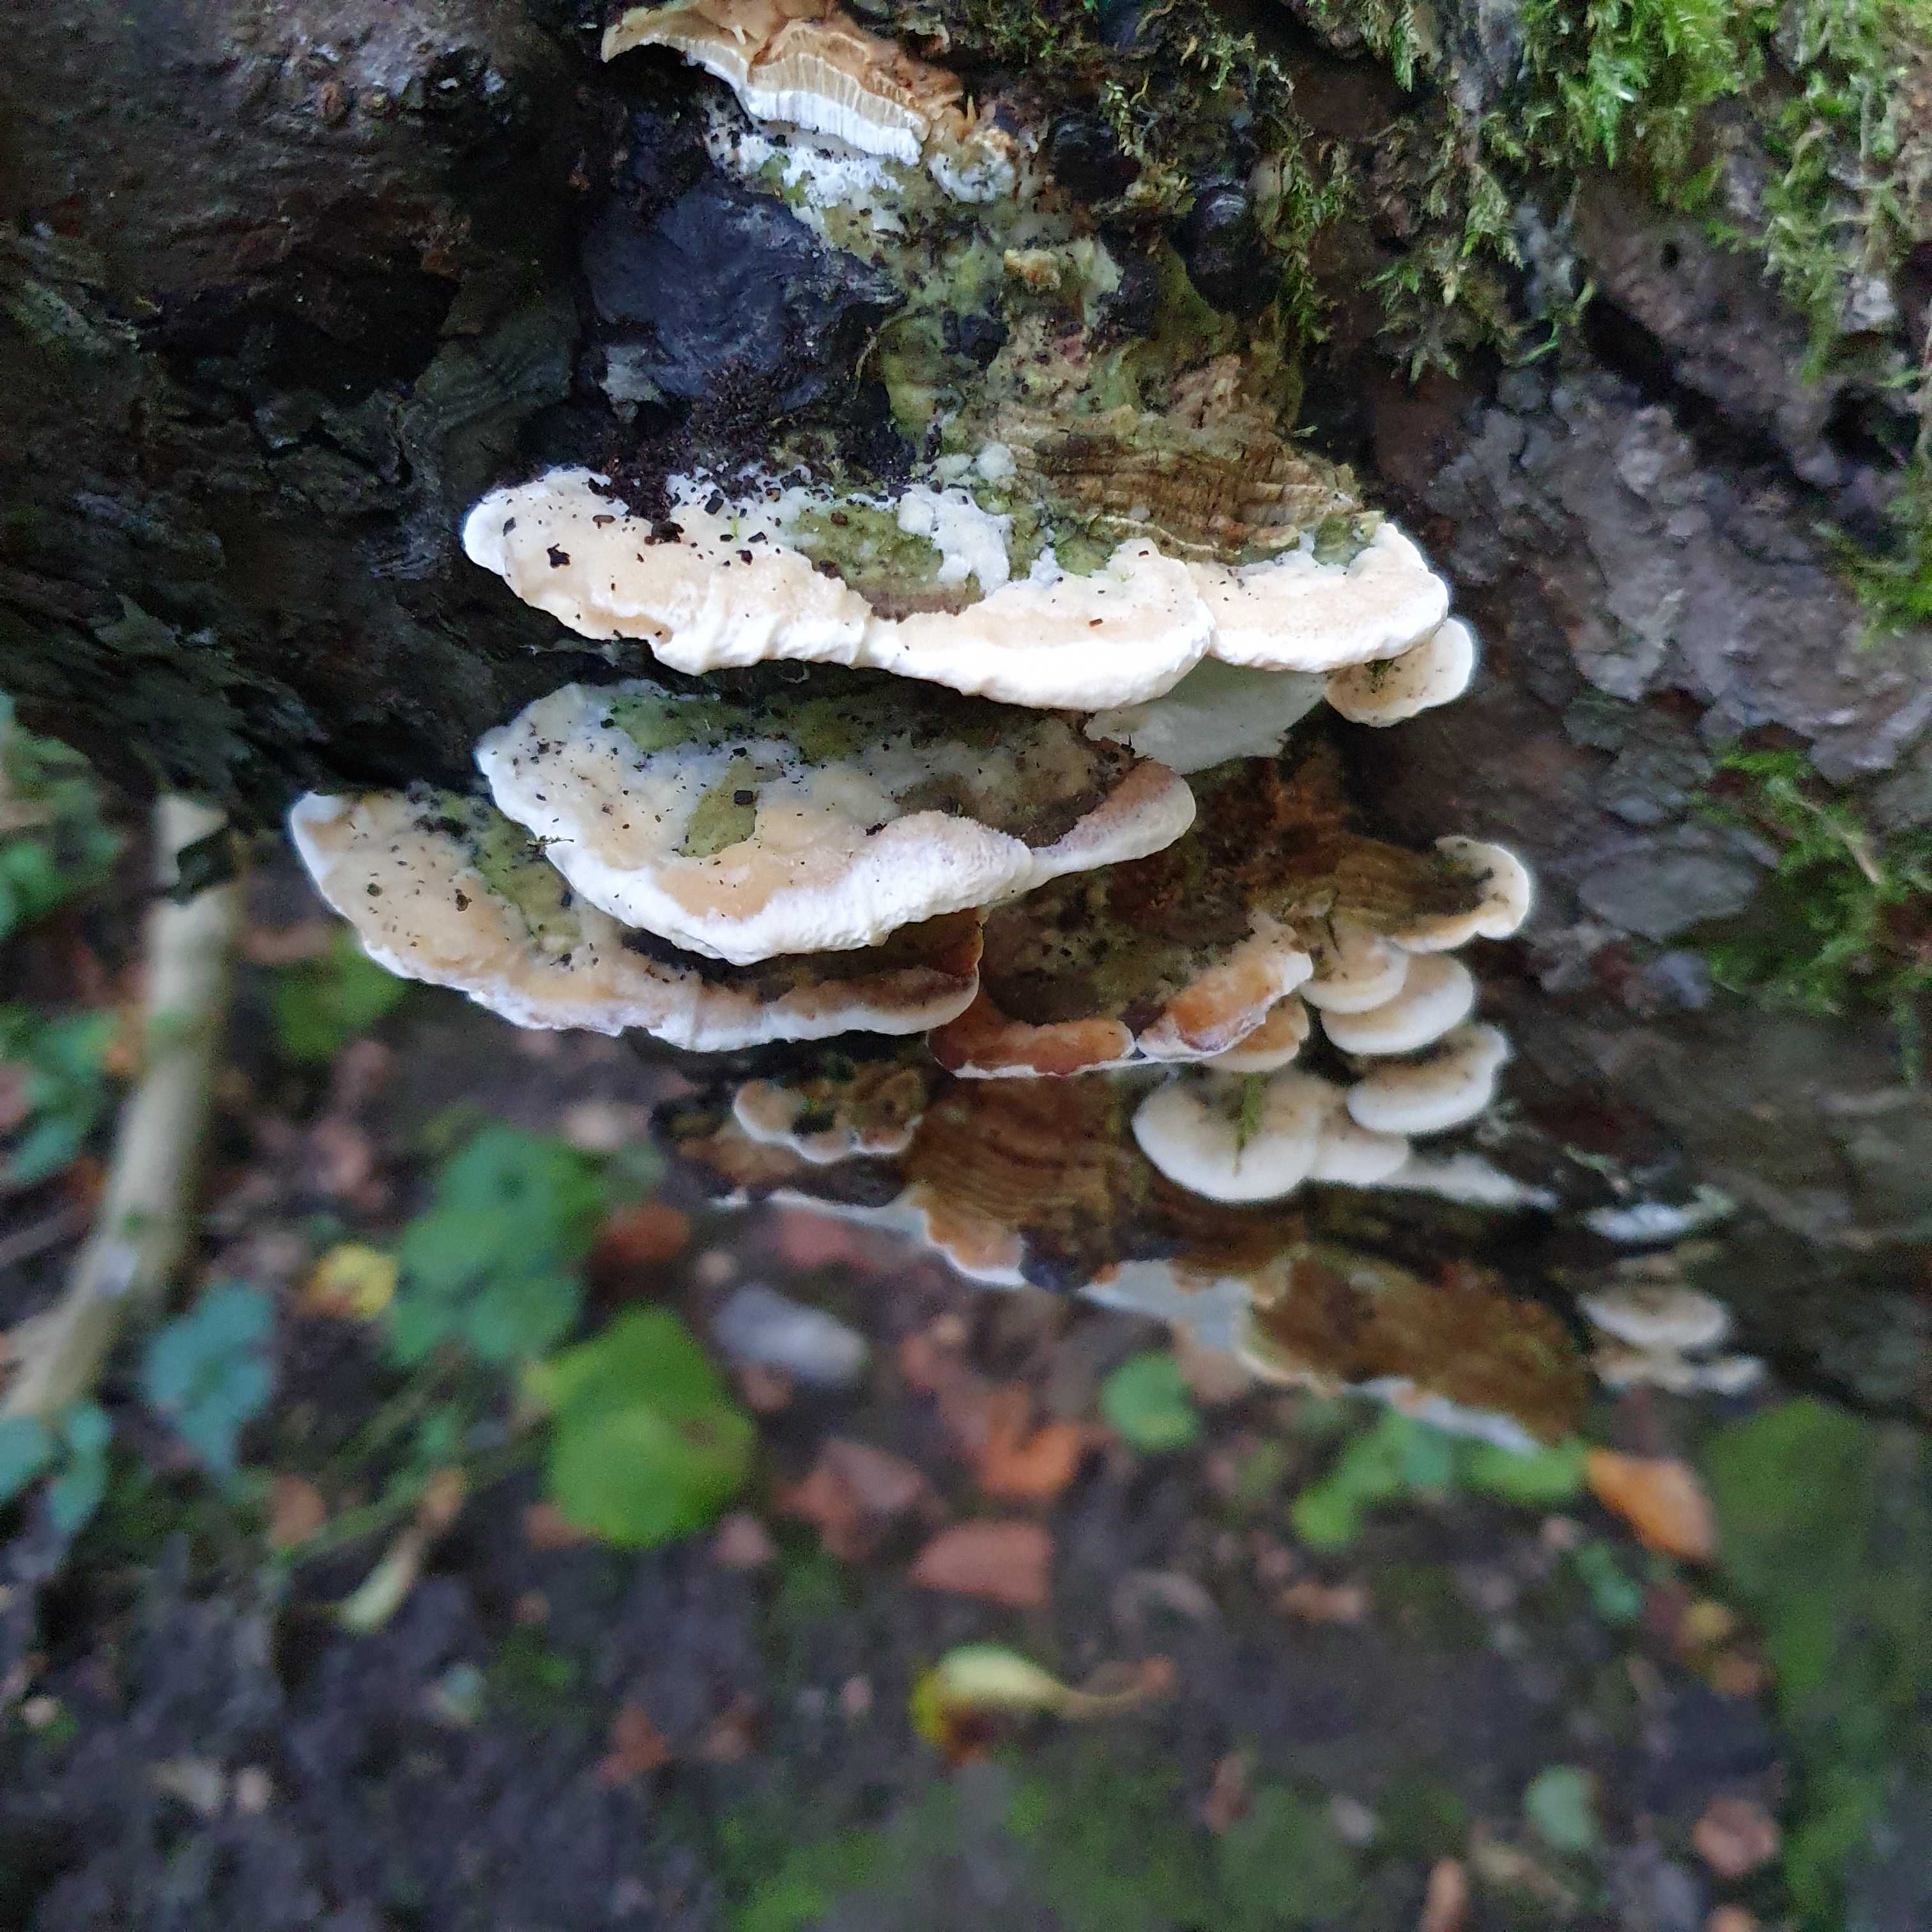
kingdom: Fungi
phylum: Basidiomycota
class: Agaricomycetes
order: Hymenochaetales
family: Oxyporaceae
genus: Oxyporus
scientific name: Oxyporus populinus
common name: sammenvokset trylleporesvamp
